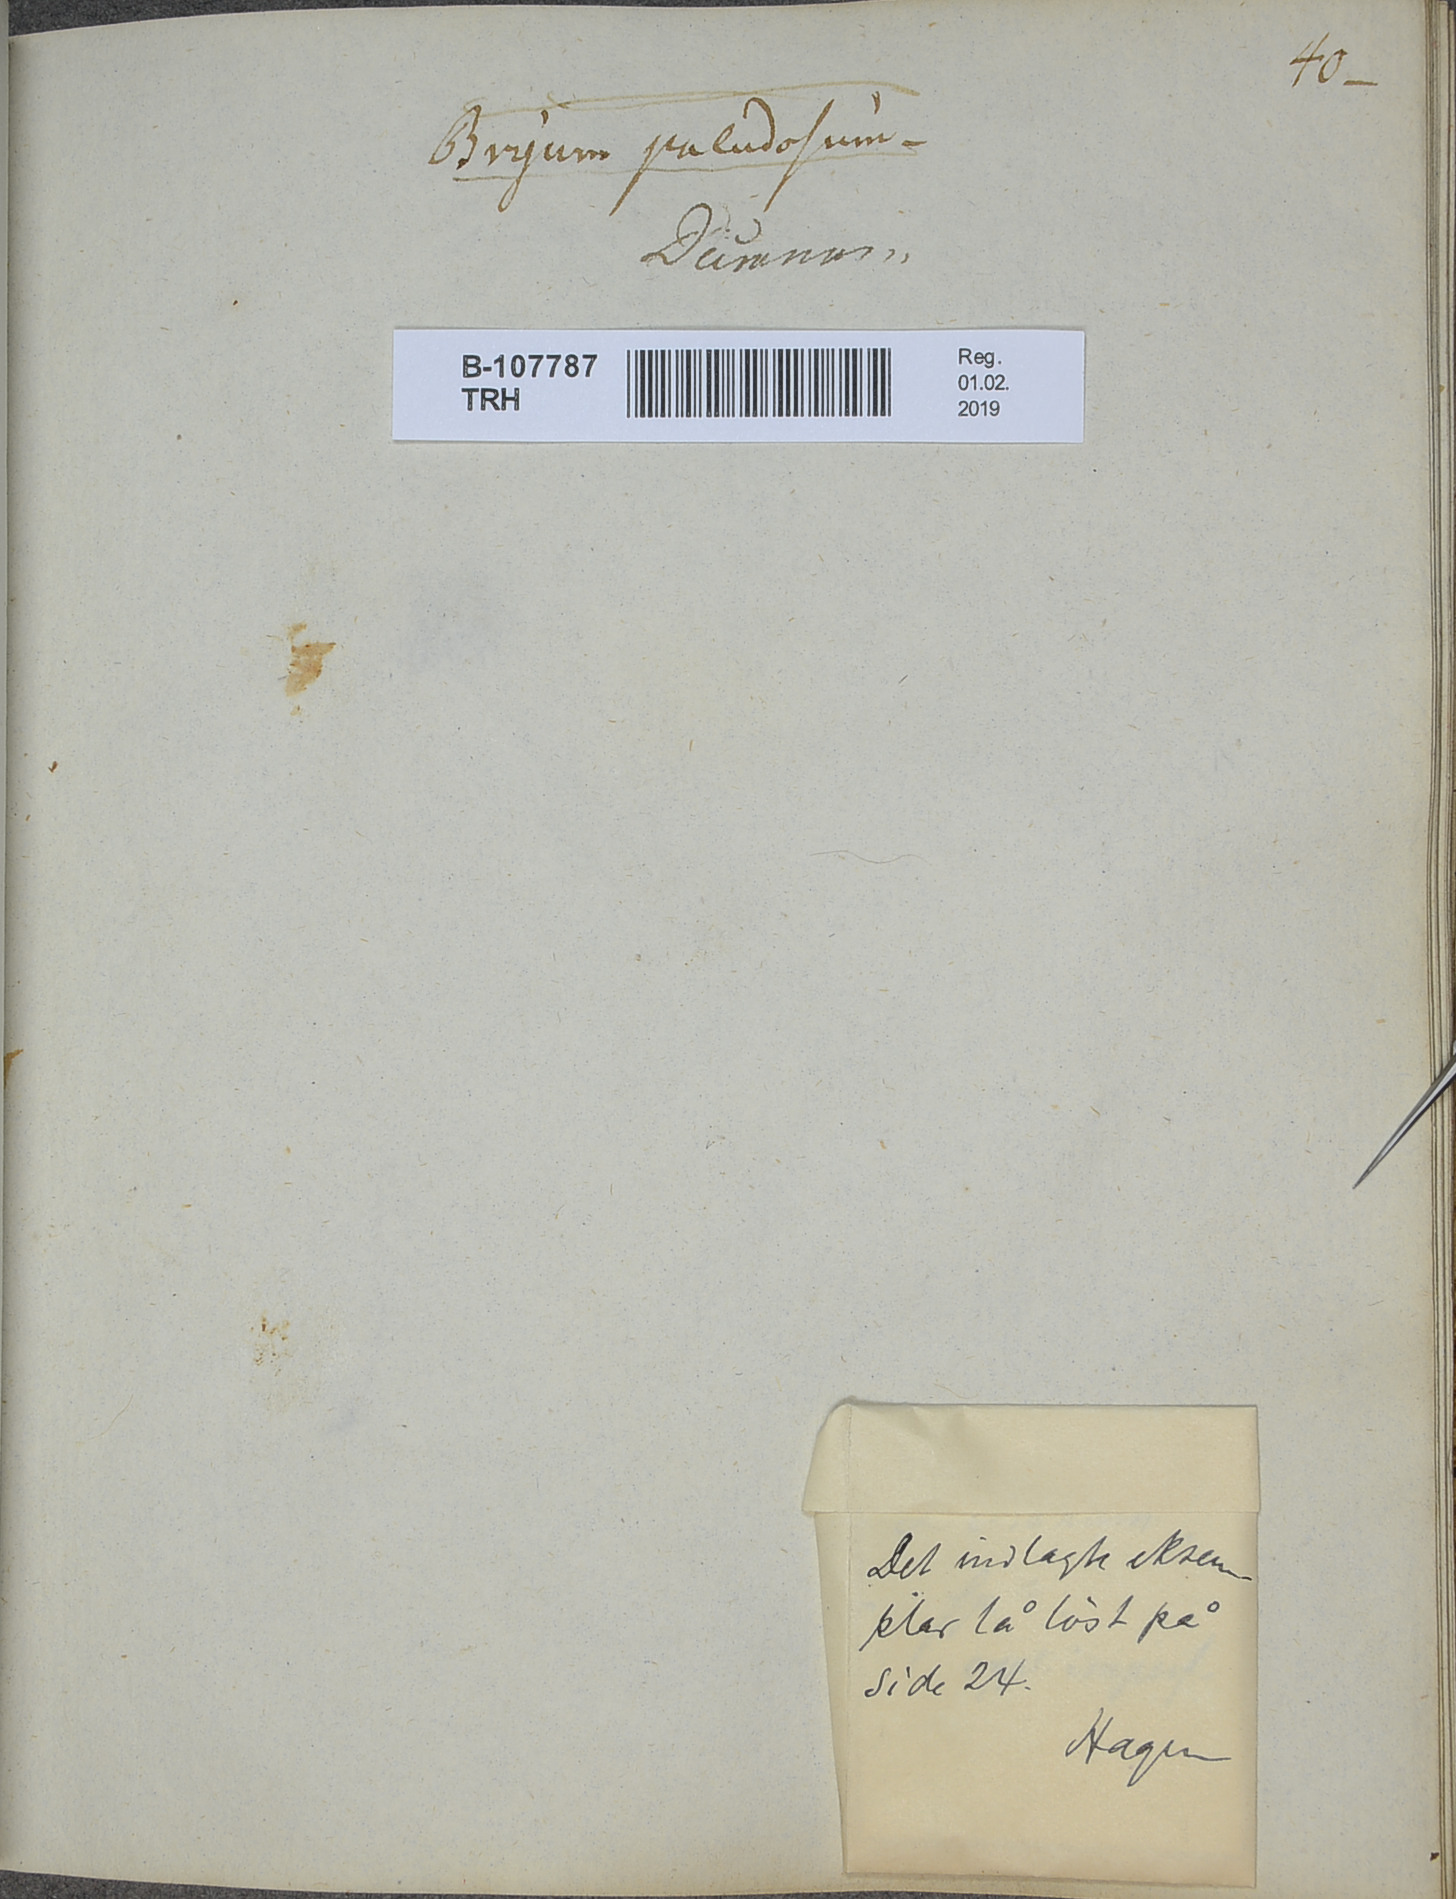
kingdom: Plantae
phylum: Bryophyta
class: Bryopsida
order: Scouleriales
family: Hymenolomataceae
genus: Hymenoloma
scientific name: Hymenoloma crispulum
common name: Mountain pincushion
